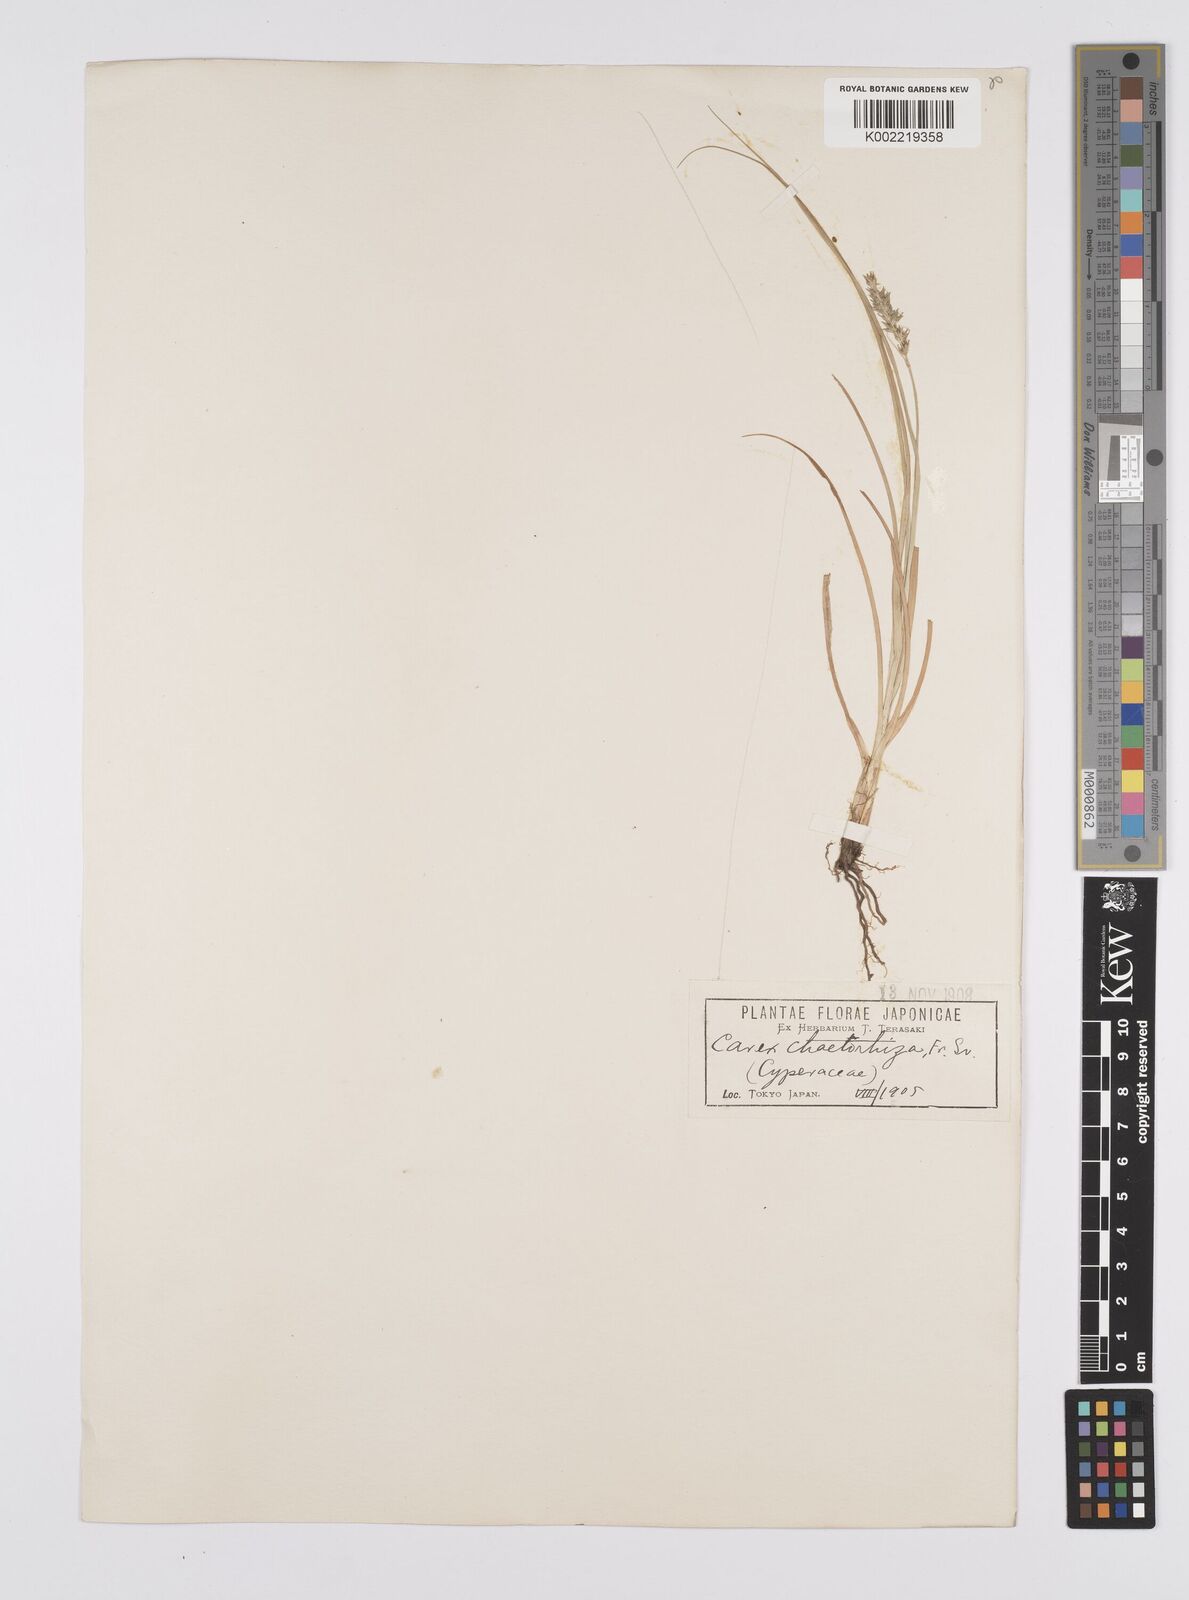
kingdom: Plantae
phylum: Tracheophyta
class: Liliopsida
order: Poales
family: Cyperaceae
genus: Carex
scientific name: Carex arenicola
